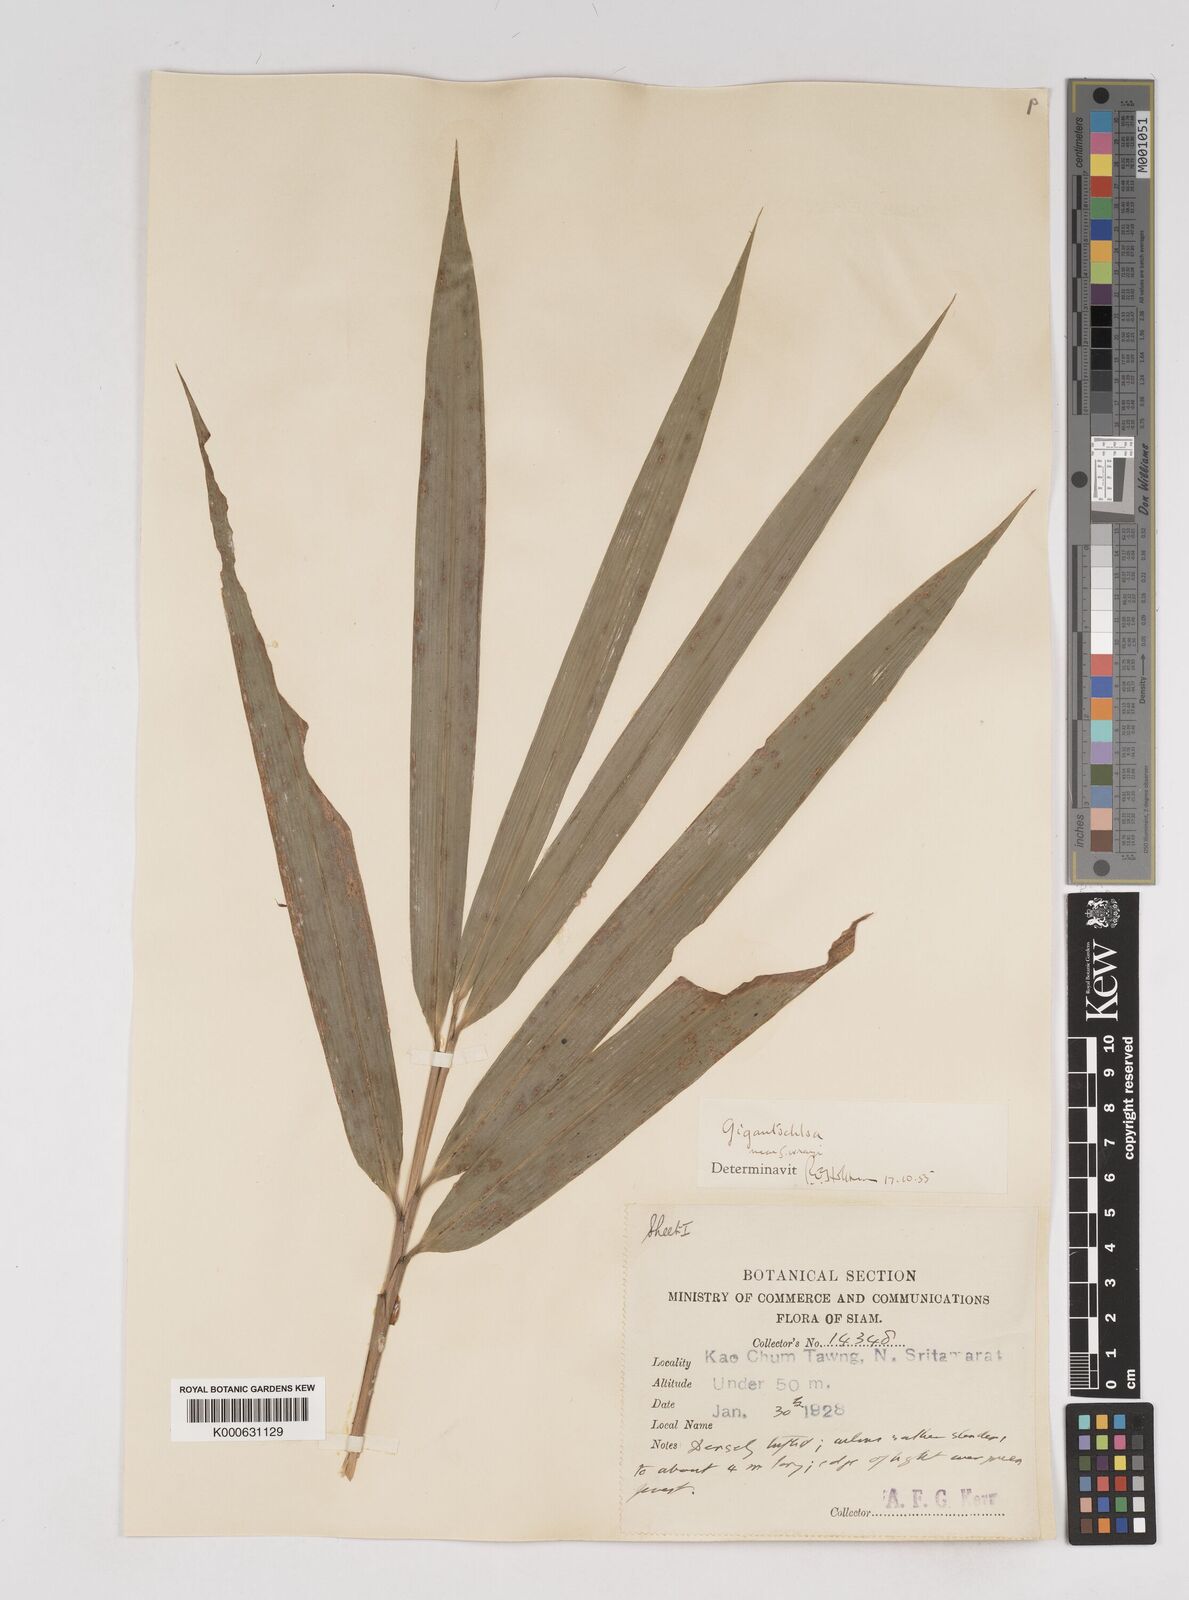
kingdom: Plantae
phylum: Tracheophyta
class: Liliopsida
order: Poales
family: Poaceae
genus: Gigantochloa
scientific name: Gigantochloa
